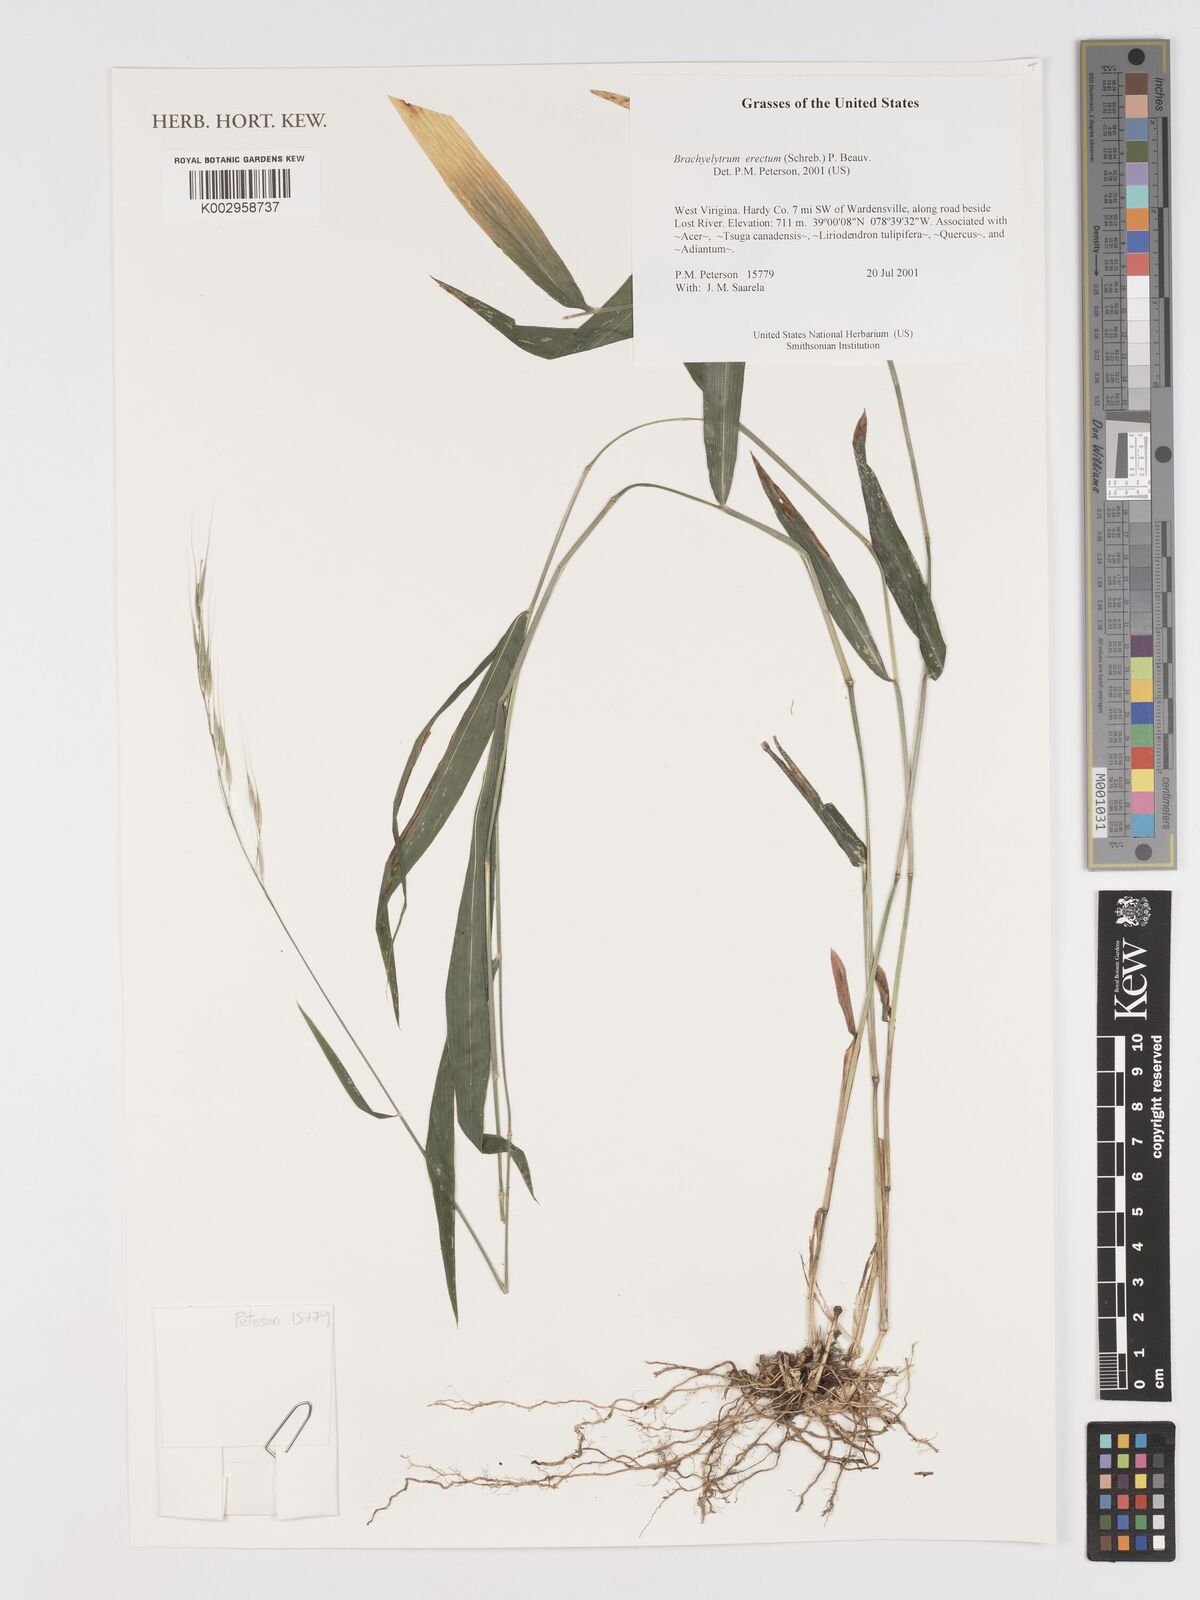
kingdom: Plantae
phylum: Tracheophyta
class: Liliopsida
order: Poales
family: Poaceae
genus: Brachyelytrum
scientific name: Brachyelytrum erectum
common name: Bearded shorthusk
